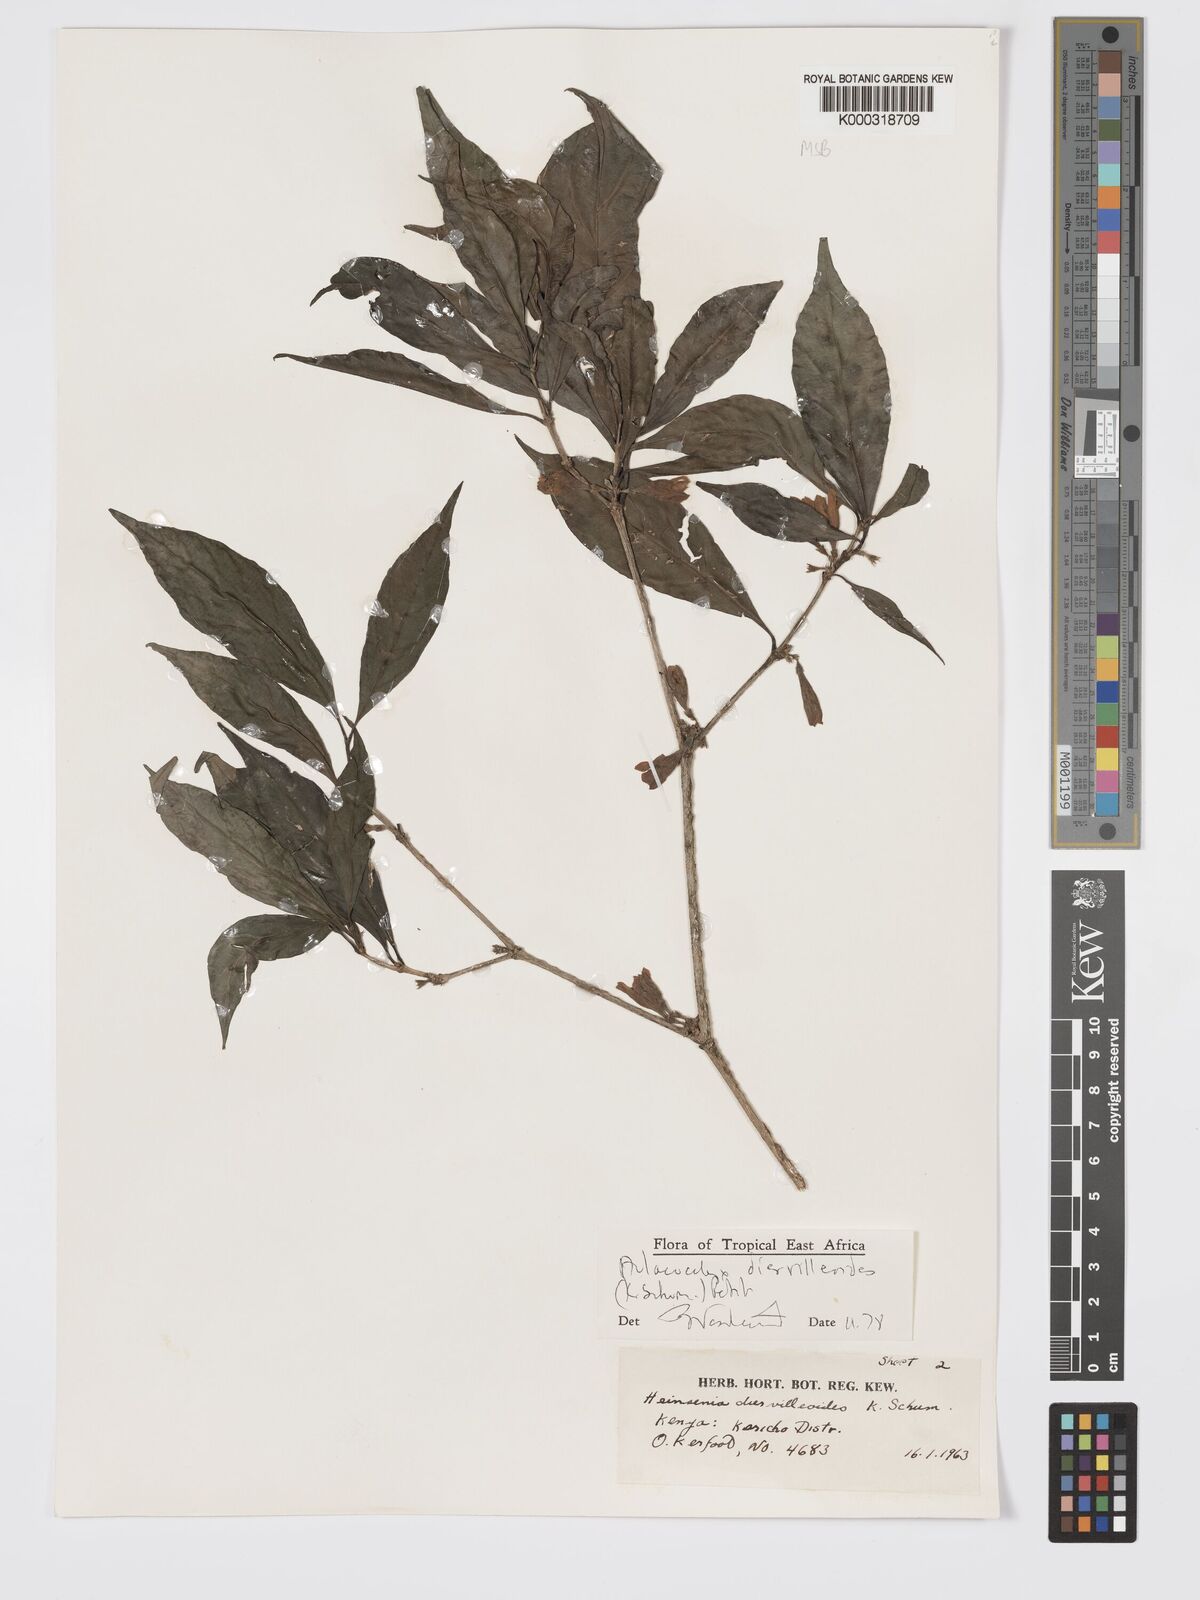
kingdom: Plantae
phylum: Tracheophyta
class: Magnoliopsida
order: Gentianales
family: Rubiaceae
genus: Heinsenia
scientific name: Heinsenia diervilleoides
